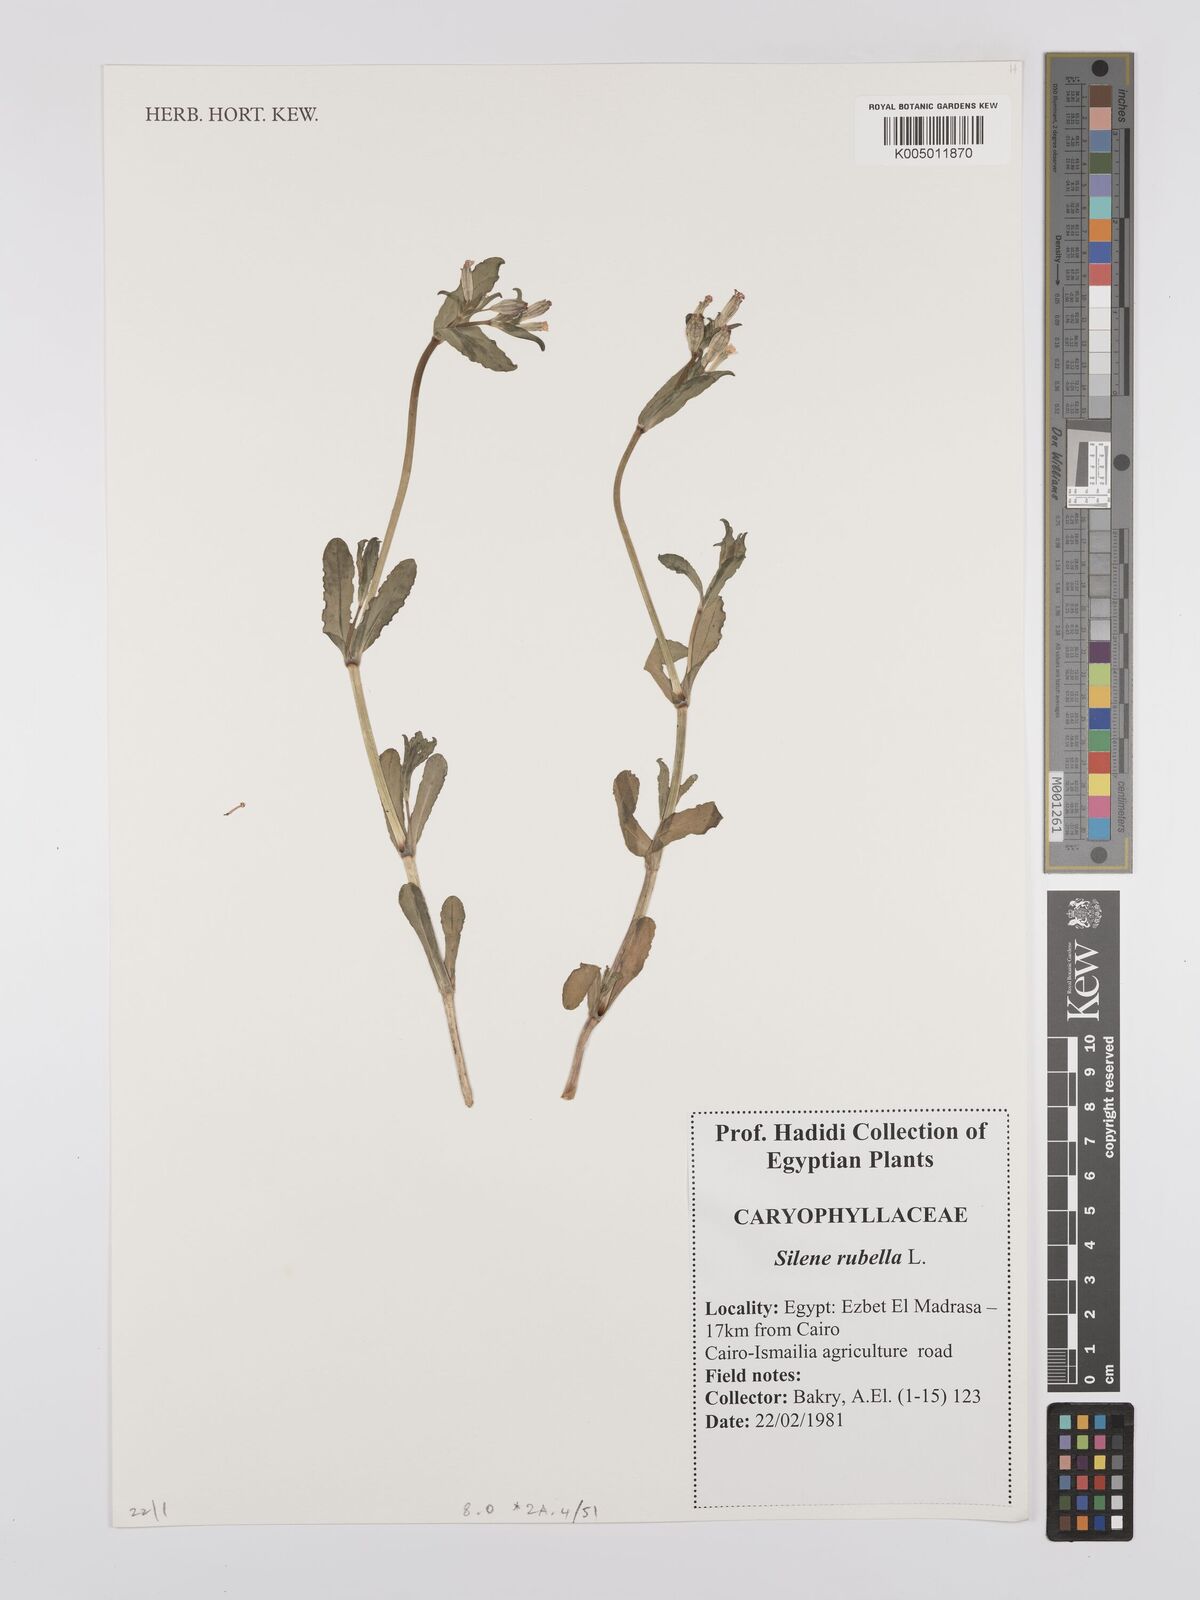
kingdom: Plantae
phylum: Tracheophyta
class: Magnoliopsida
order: Caryophyllales
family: Caryophyllaceae
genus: Silene
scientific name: Silene rubella
